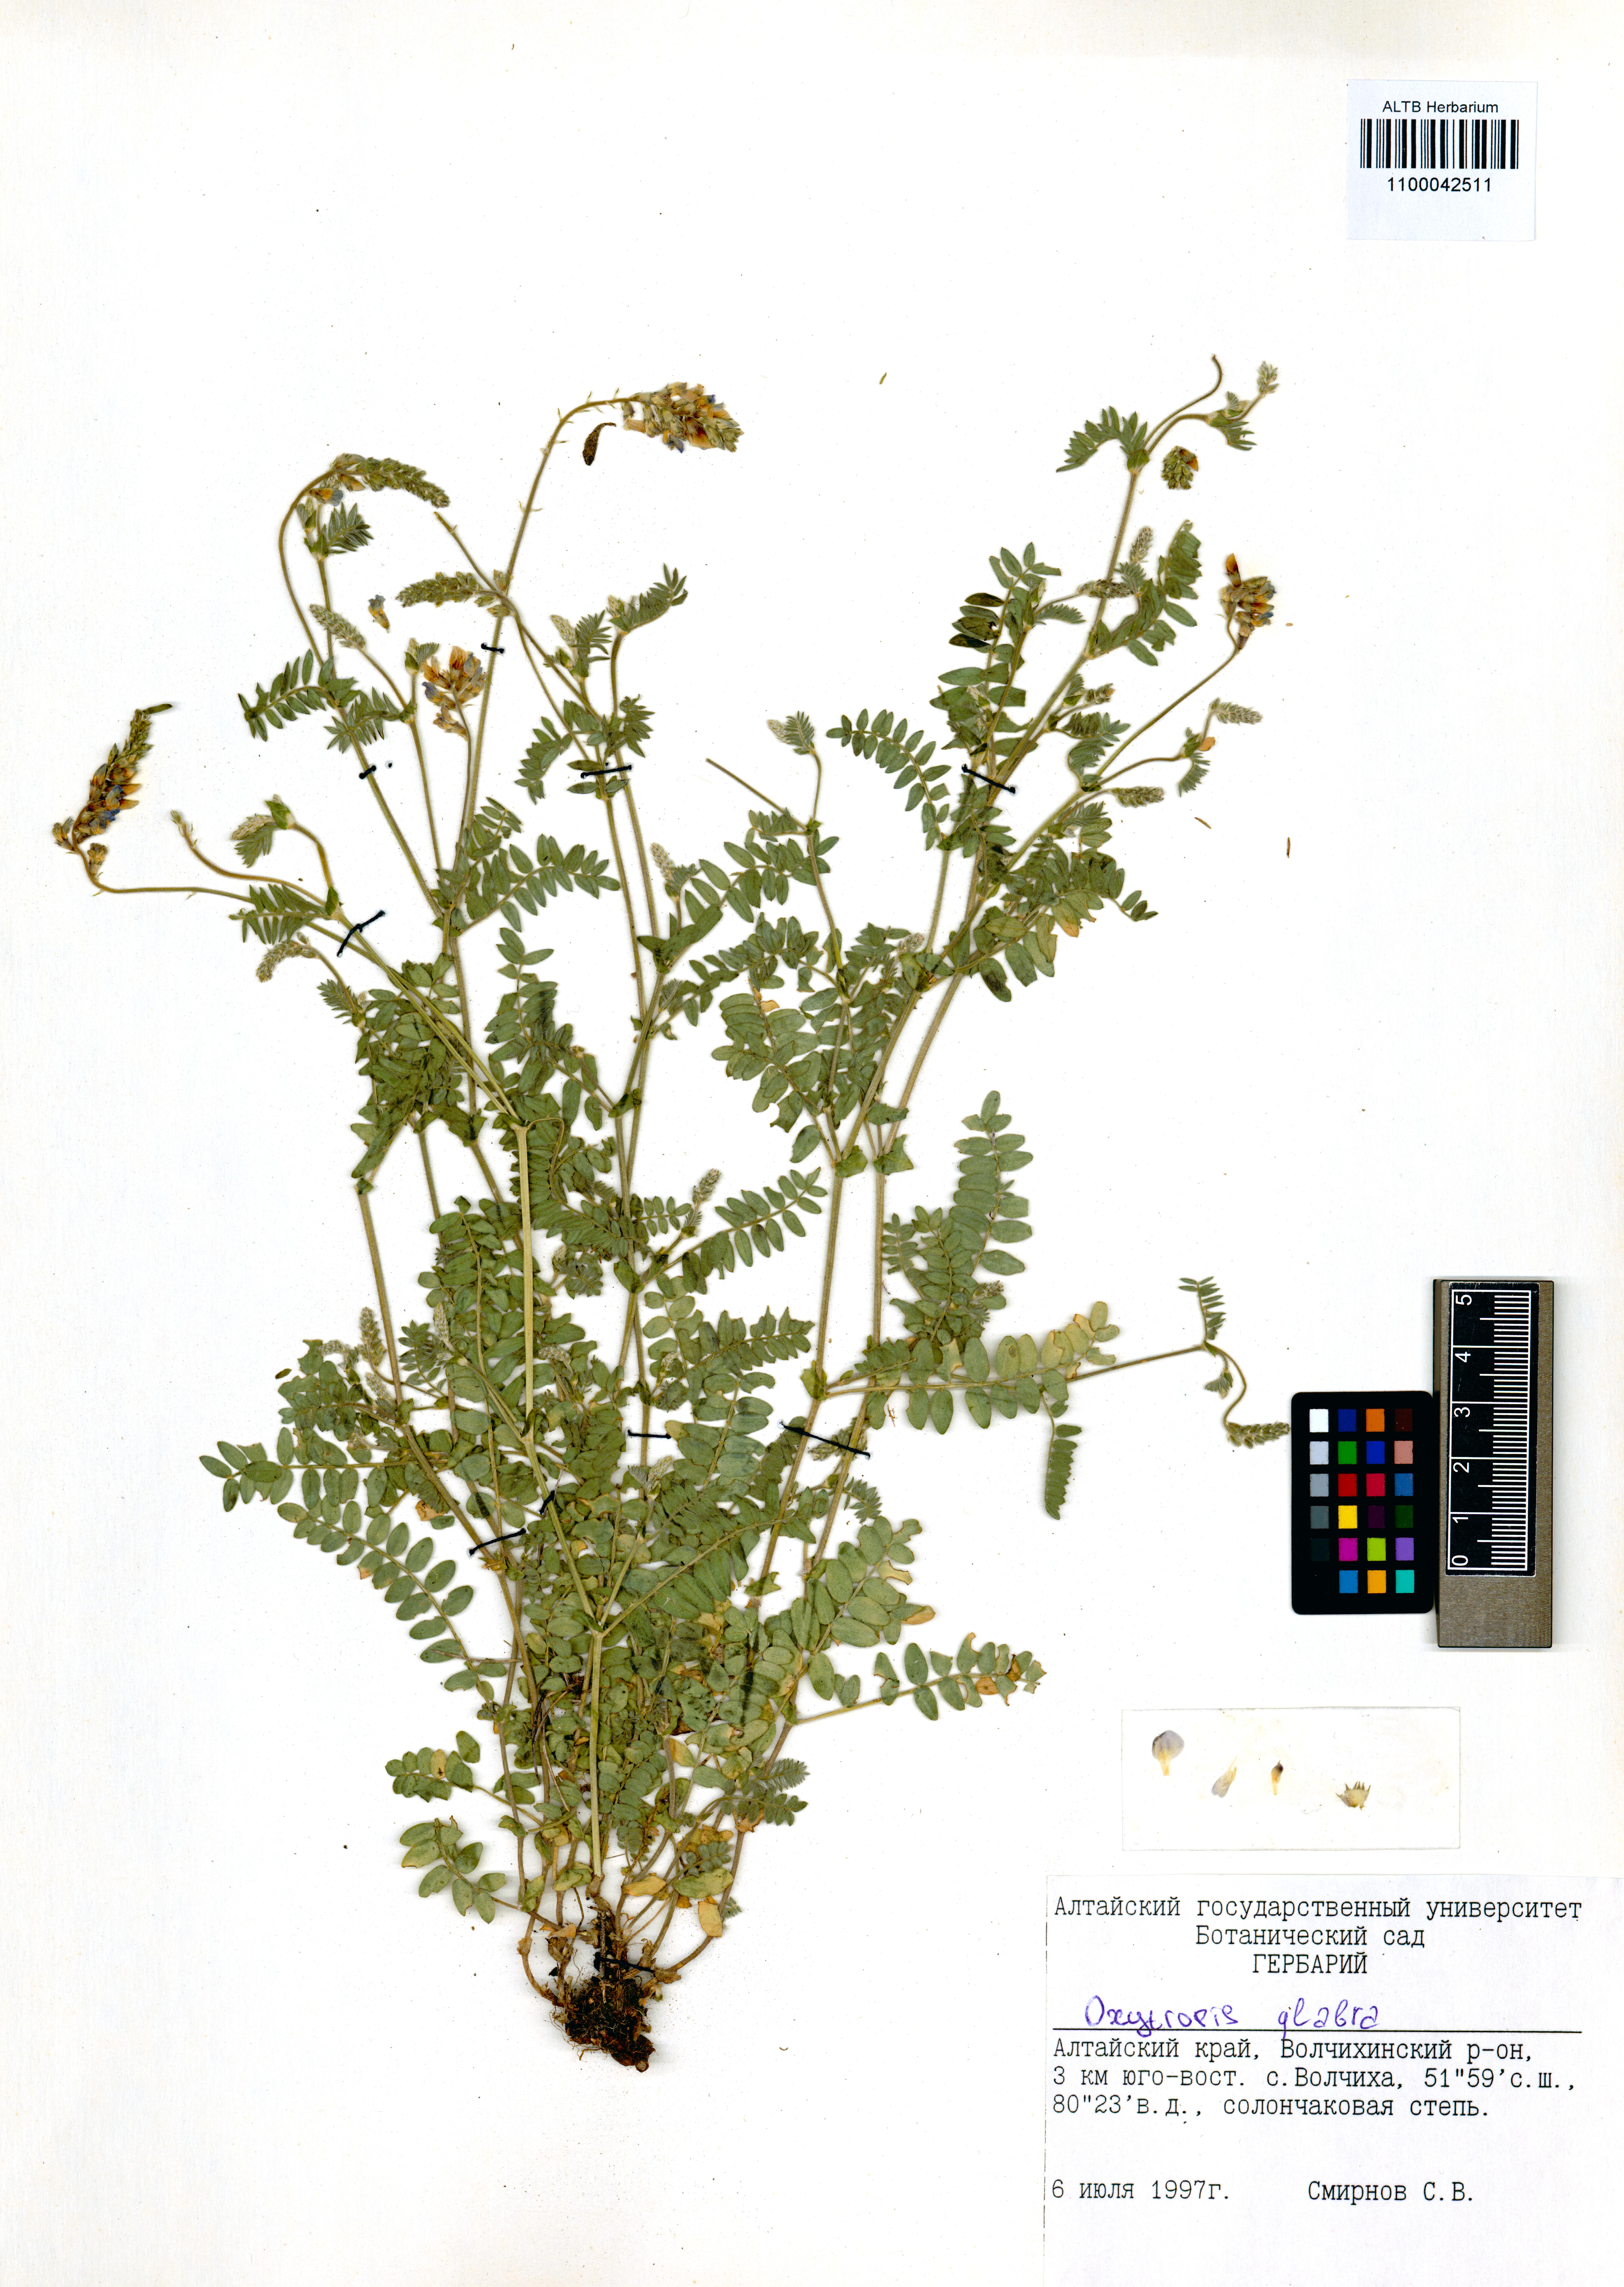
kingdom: Plantae
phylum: Tracheophyta
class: Magnoliopsida
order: Fabales
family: Fabaceae
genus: Oxytropis
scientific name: Oxytropis glabra
